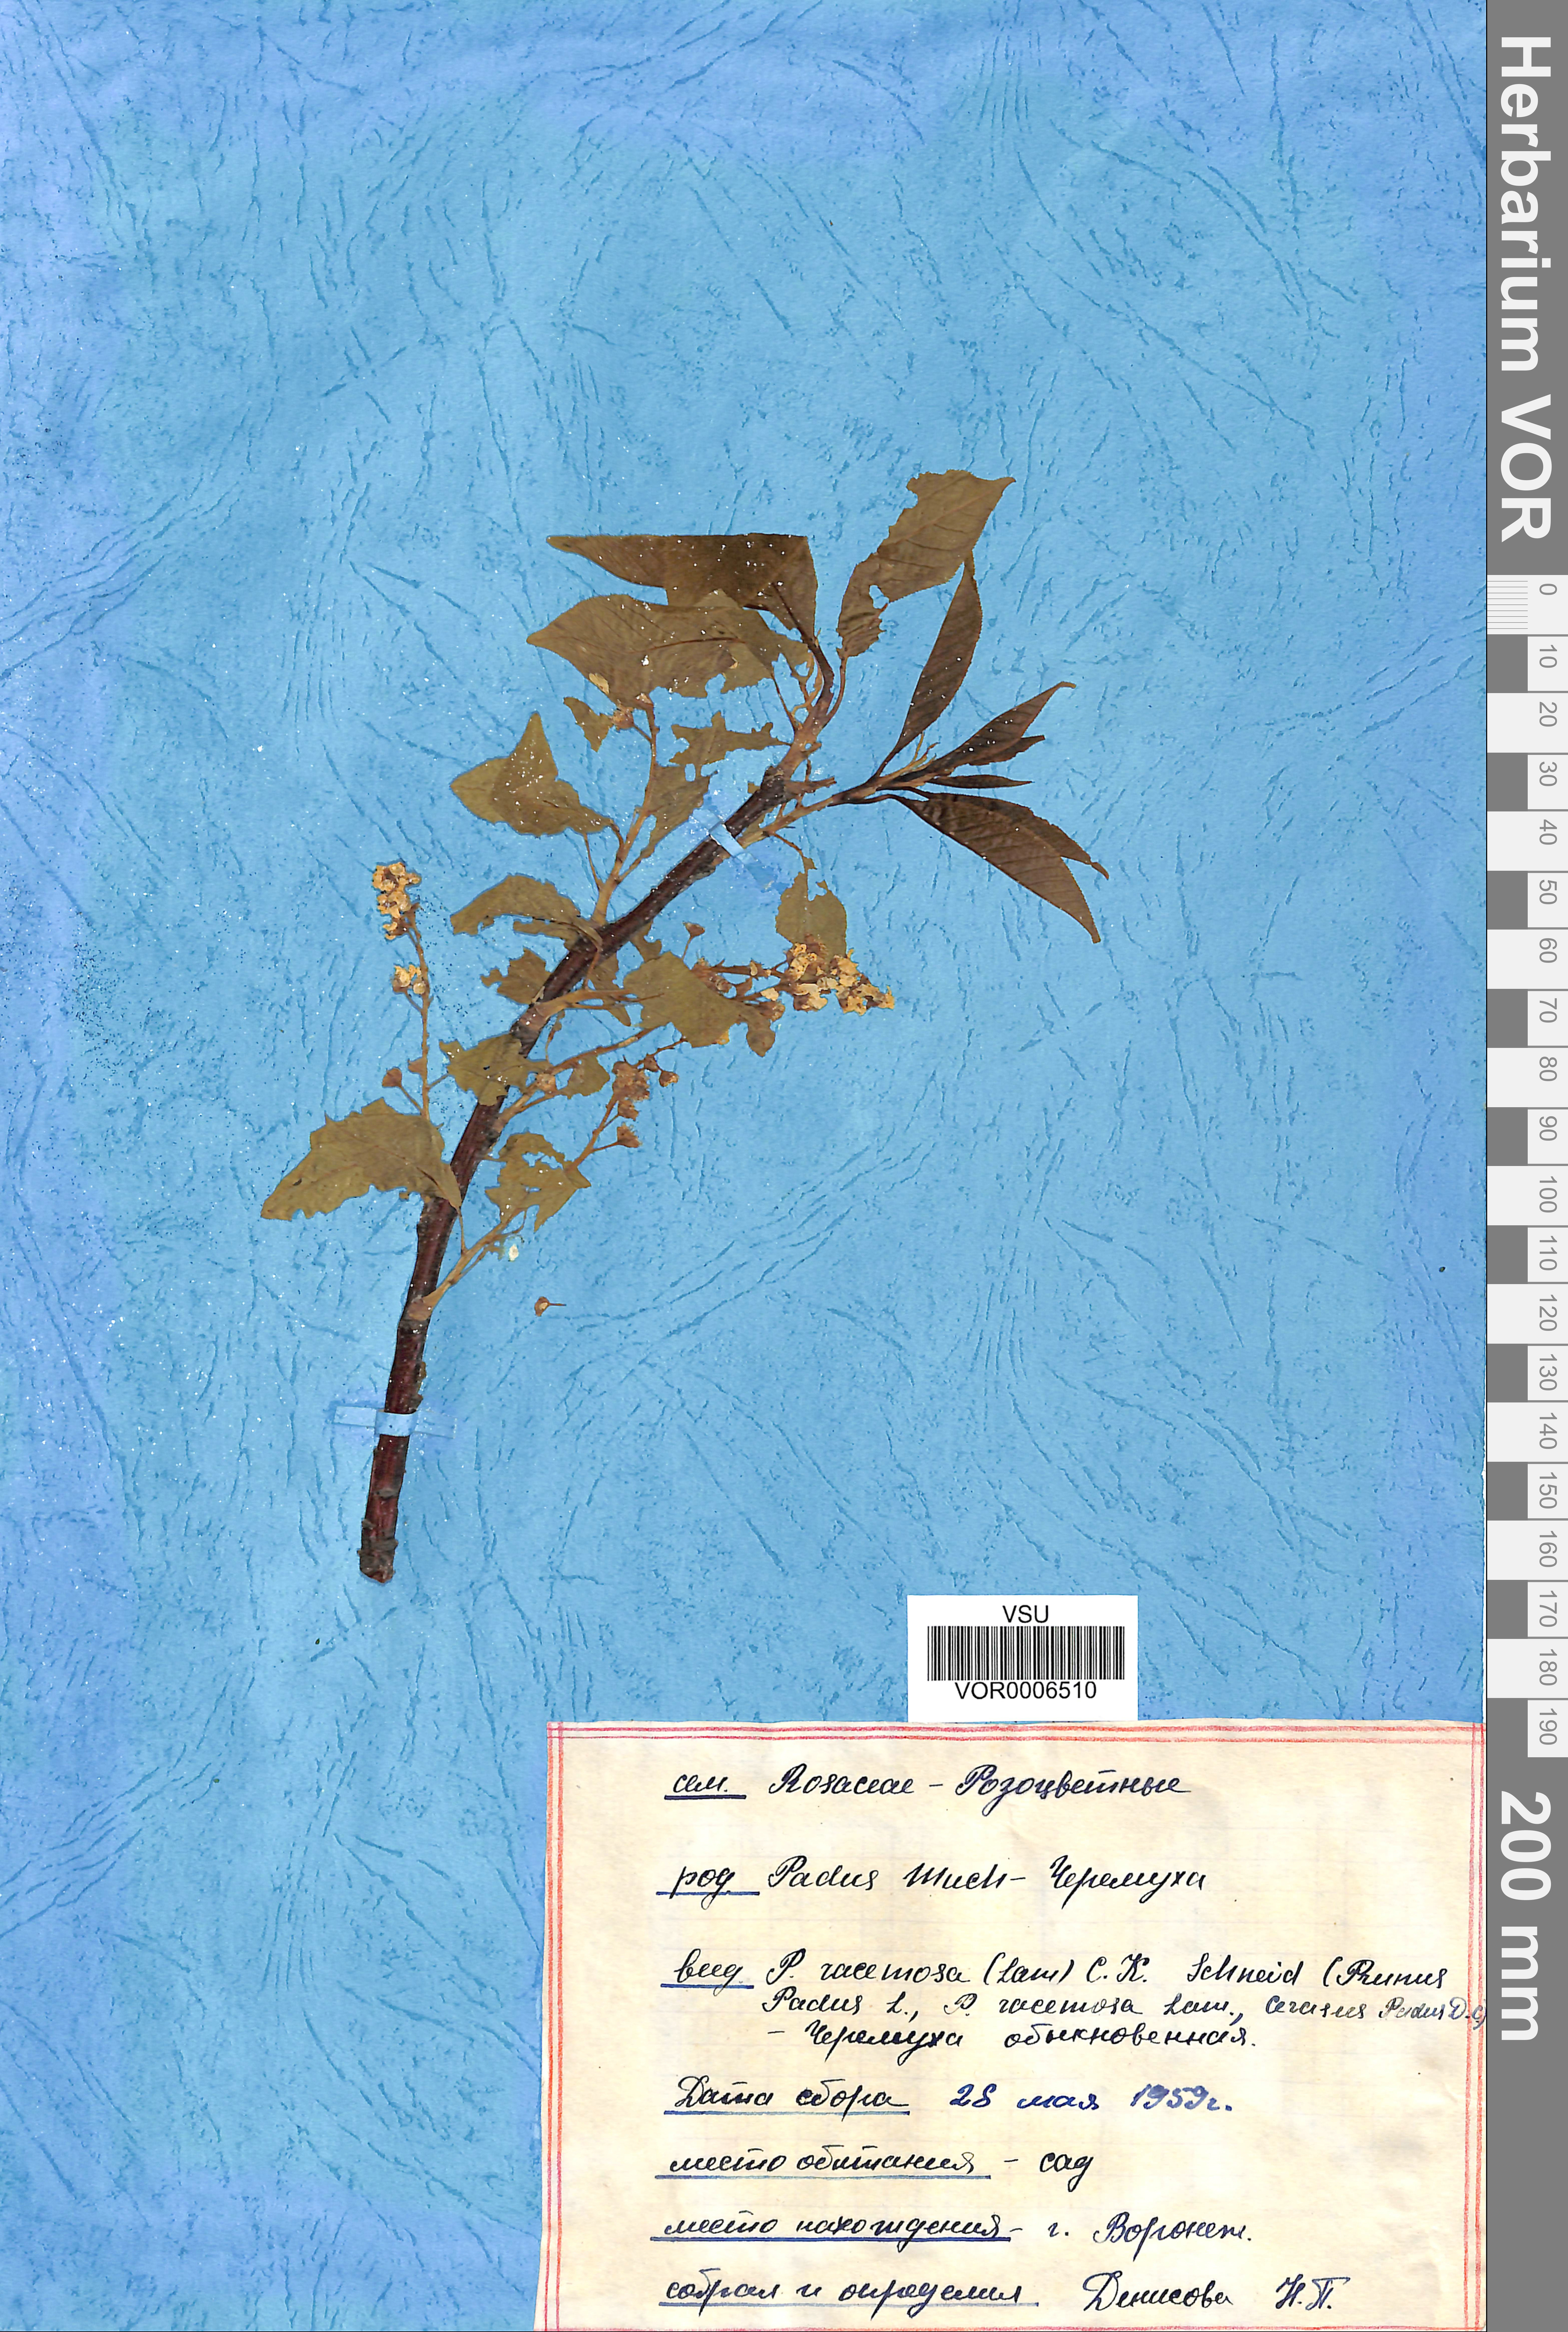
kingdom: Plantae
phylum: Tracheophyta
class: Magnoliopsida
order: Rosales
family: Rosaceae
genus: Prunus
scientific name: Prunus padus
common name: Bird cherry
